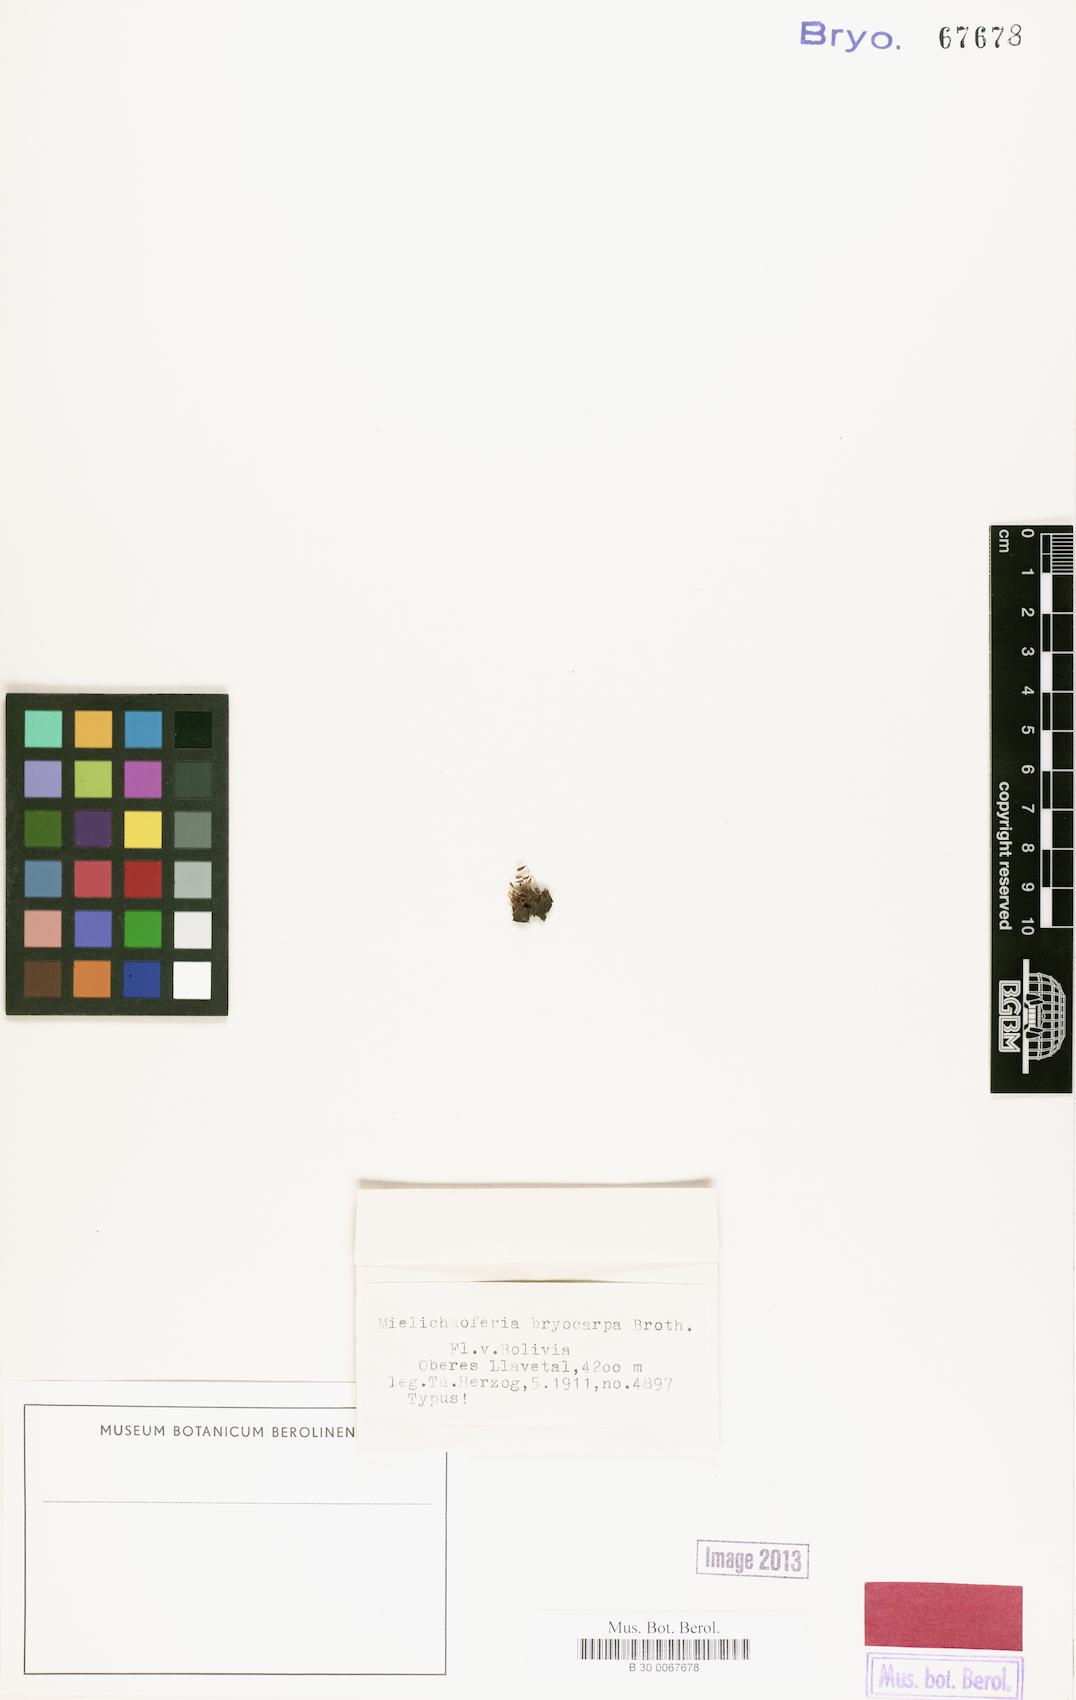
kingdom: Plantae
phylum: Bryophyta
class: Bryopsida
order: Bryales
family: Mniaceae
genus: Mielichhoferia
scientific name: Mielichhoferia bryocarpa
